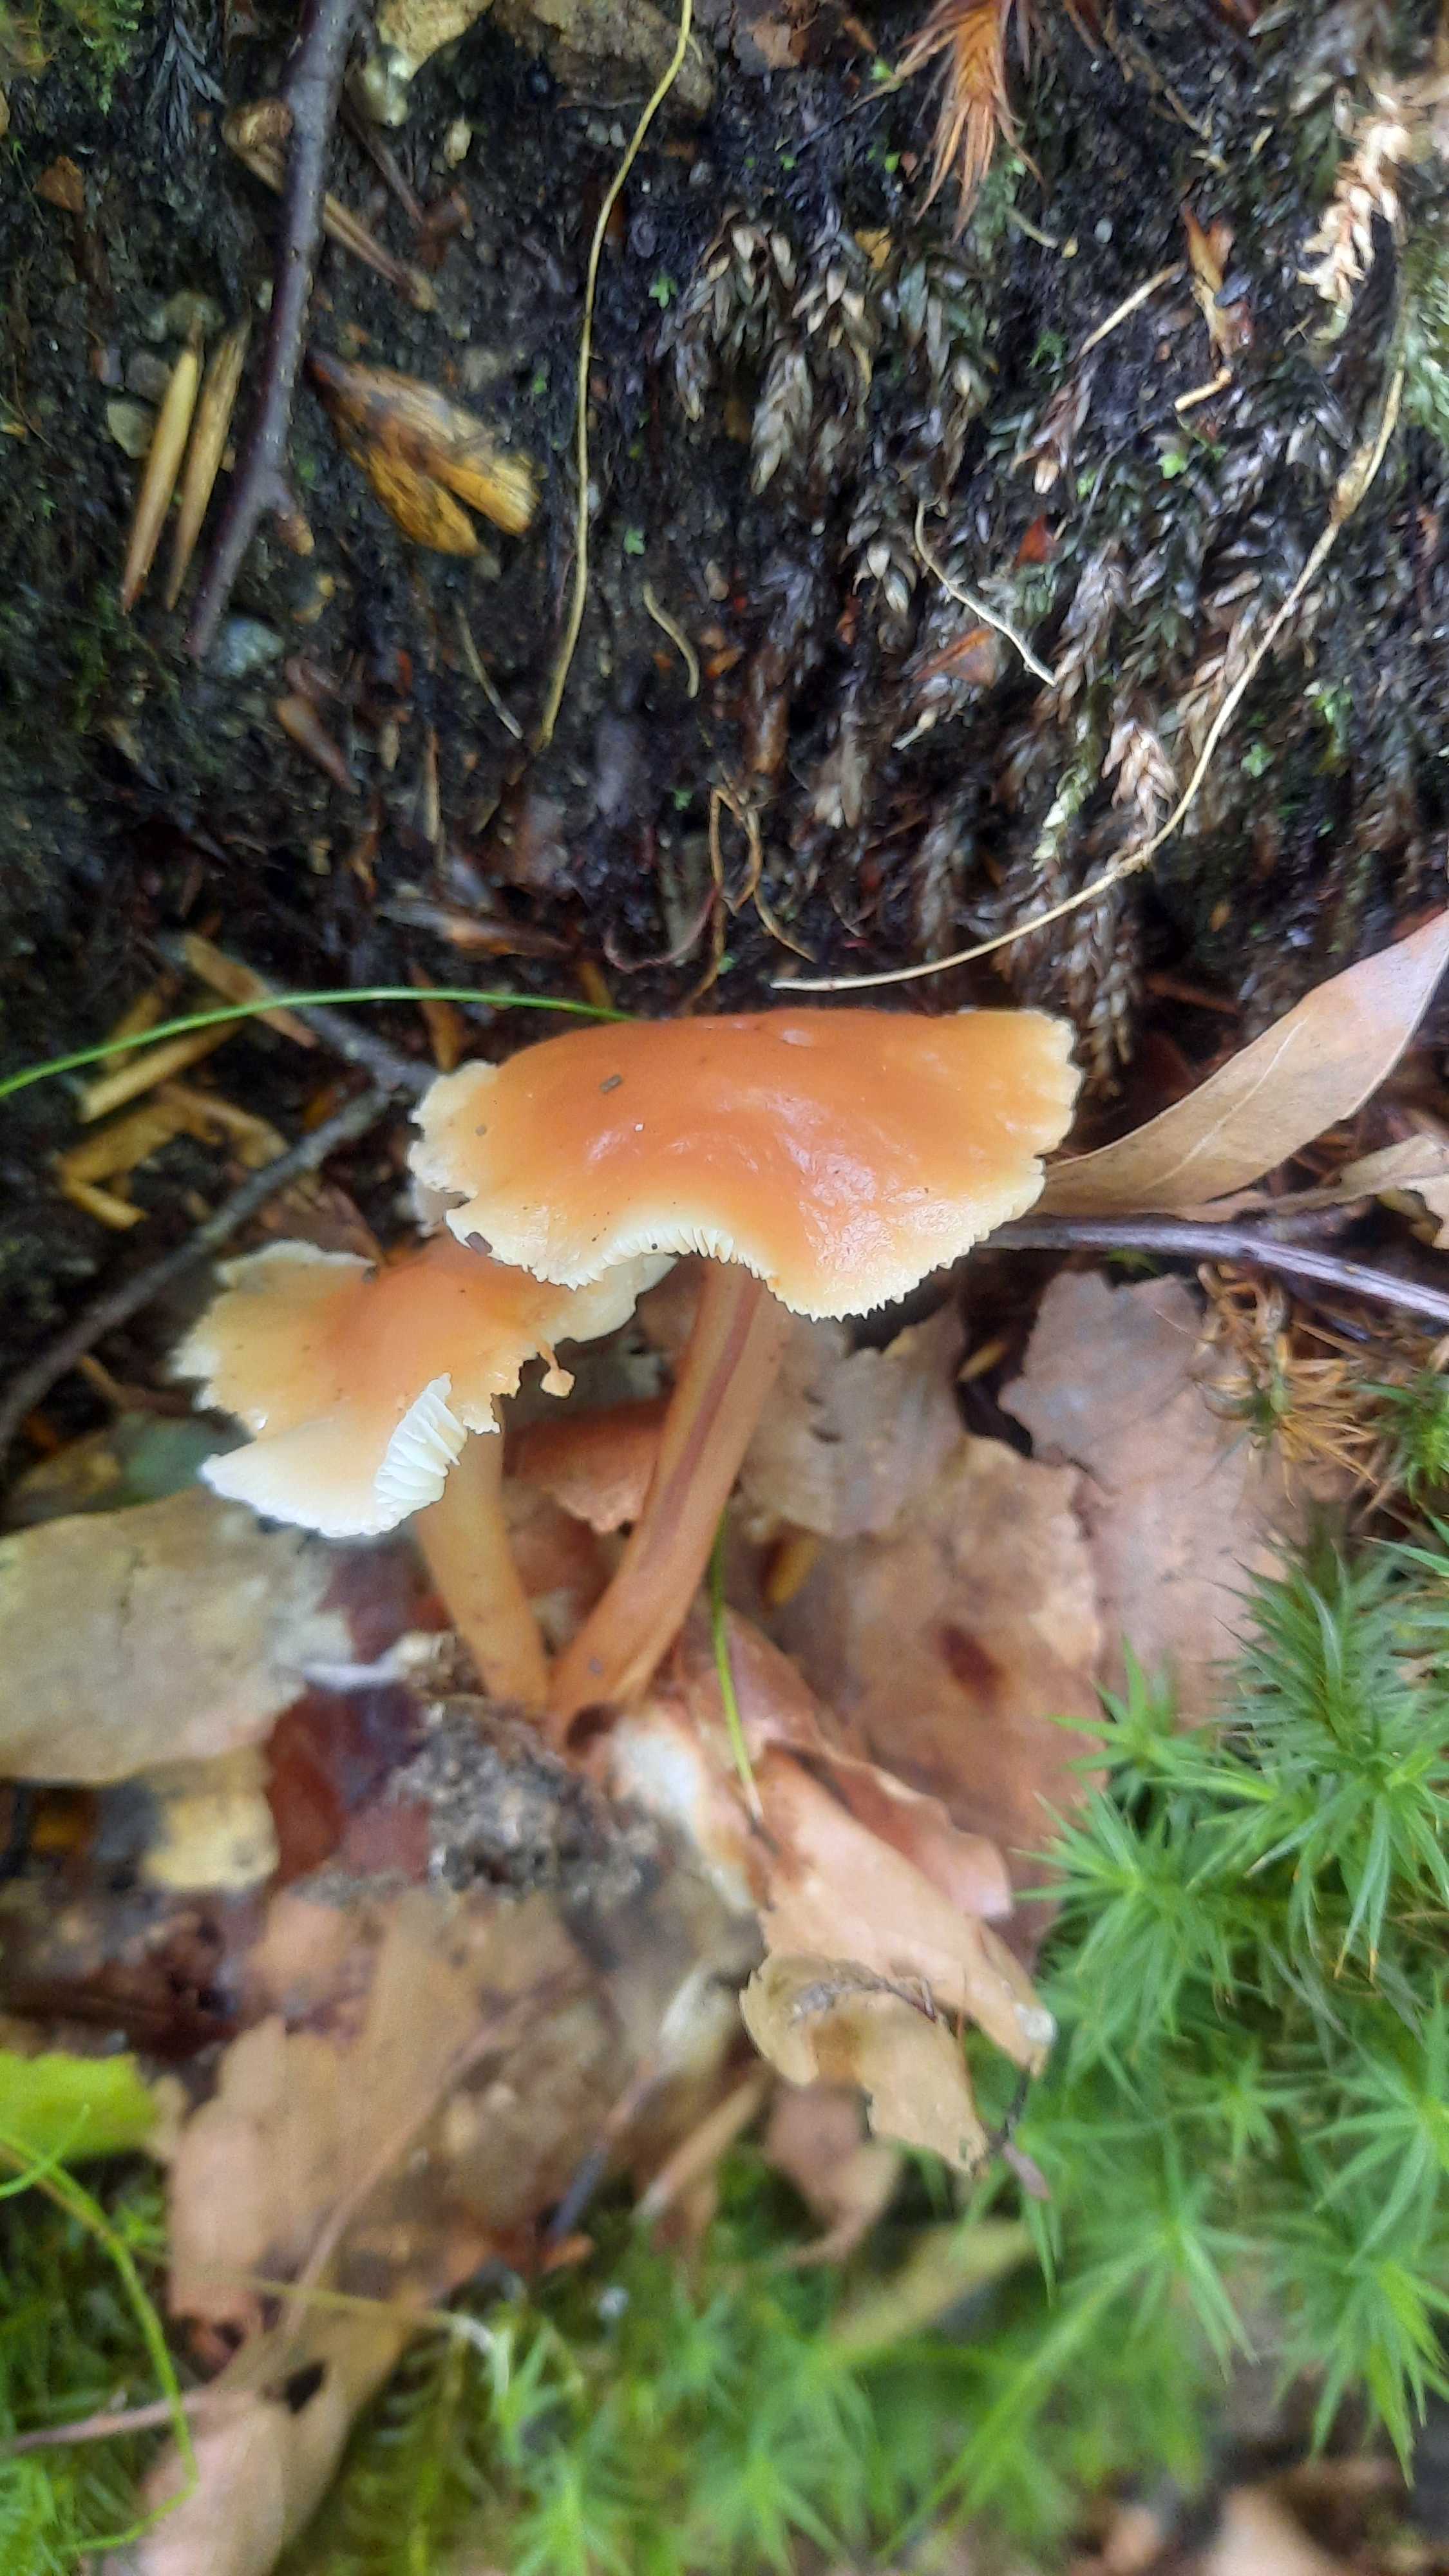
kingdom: Fungi
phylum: Basidiomycota
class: Agaricomycetes
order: Agaricales
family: Omphalotaceae
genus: Gymnopus
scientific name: Gymnopus dryophilus
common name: løv-fladhat
